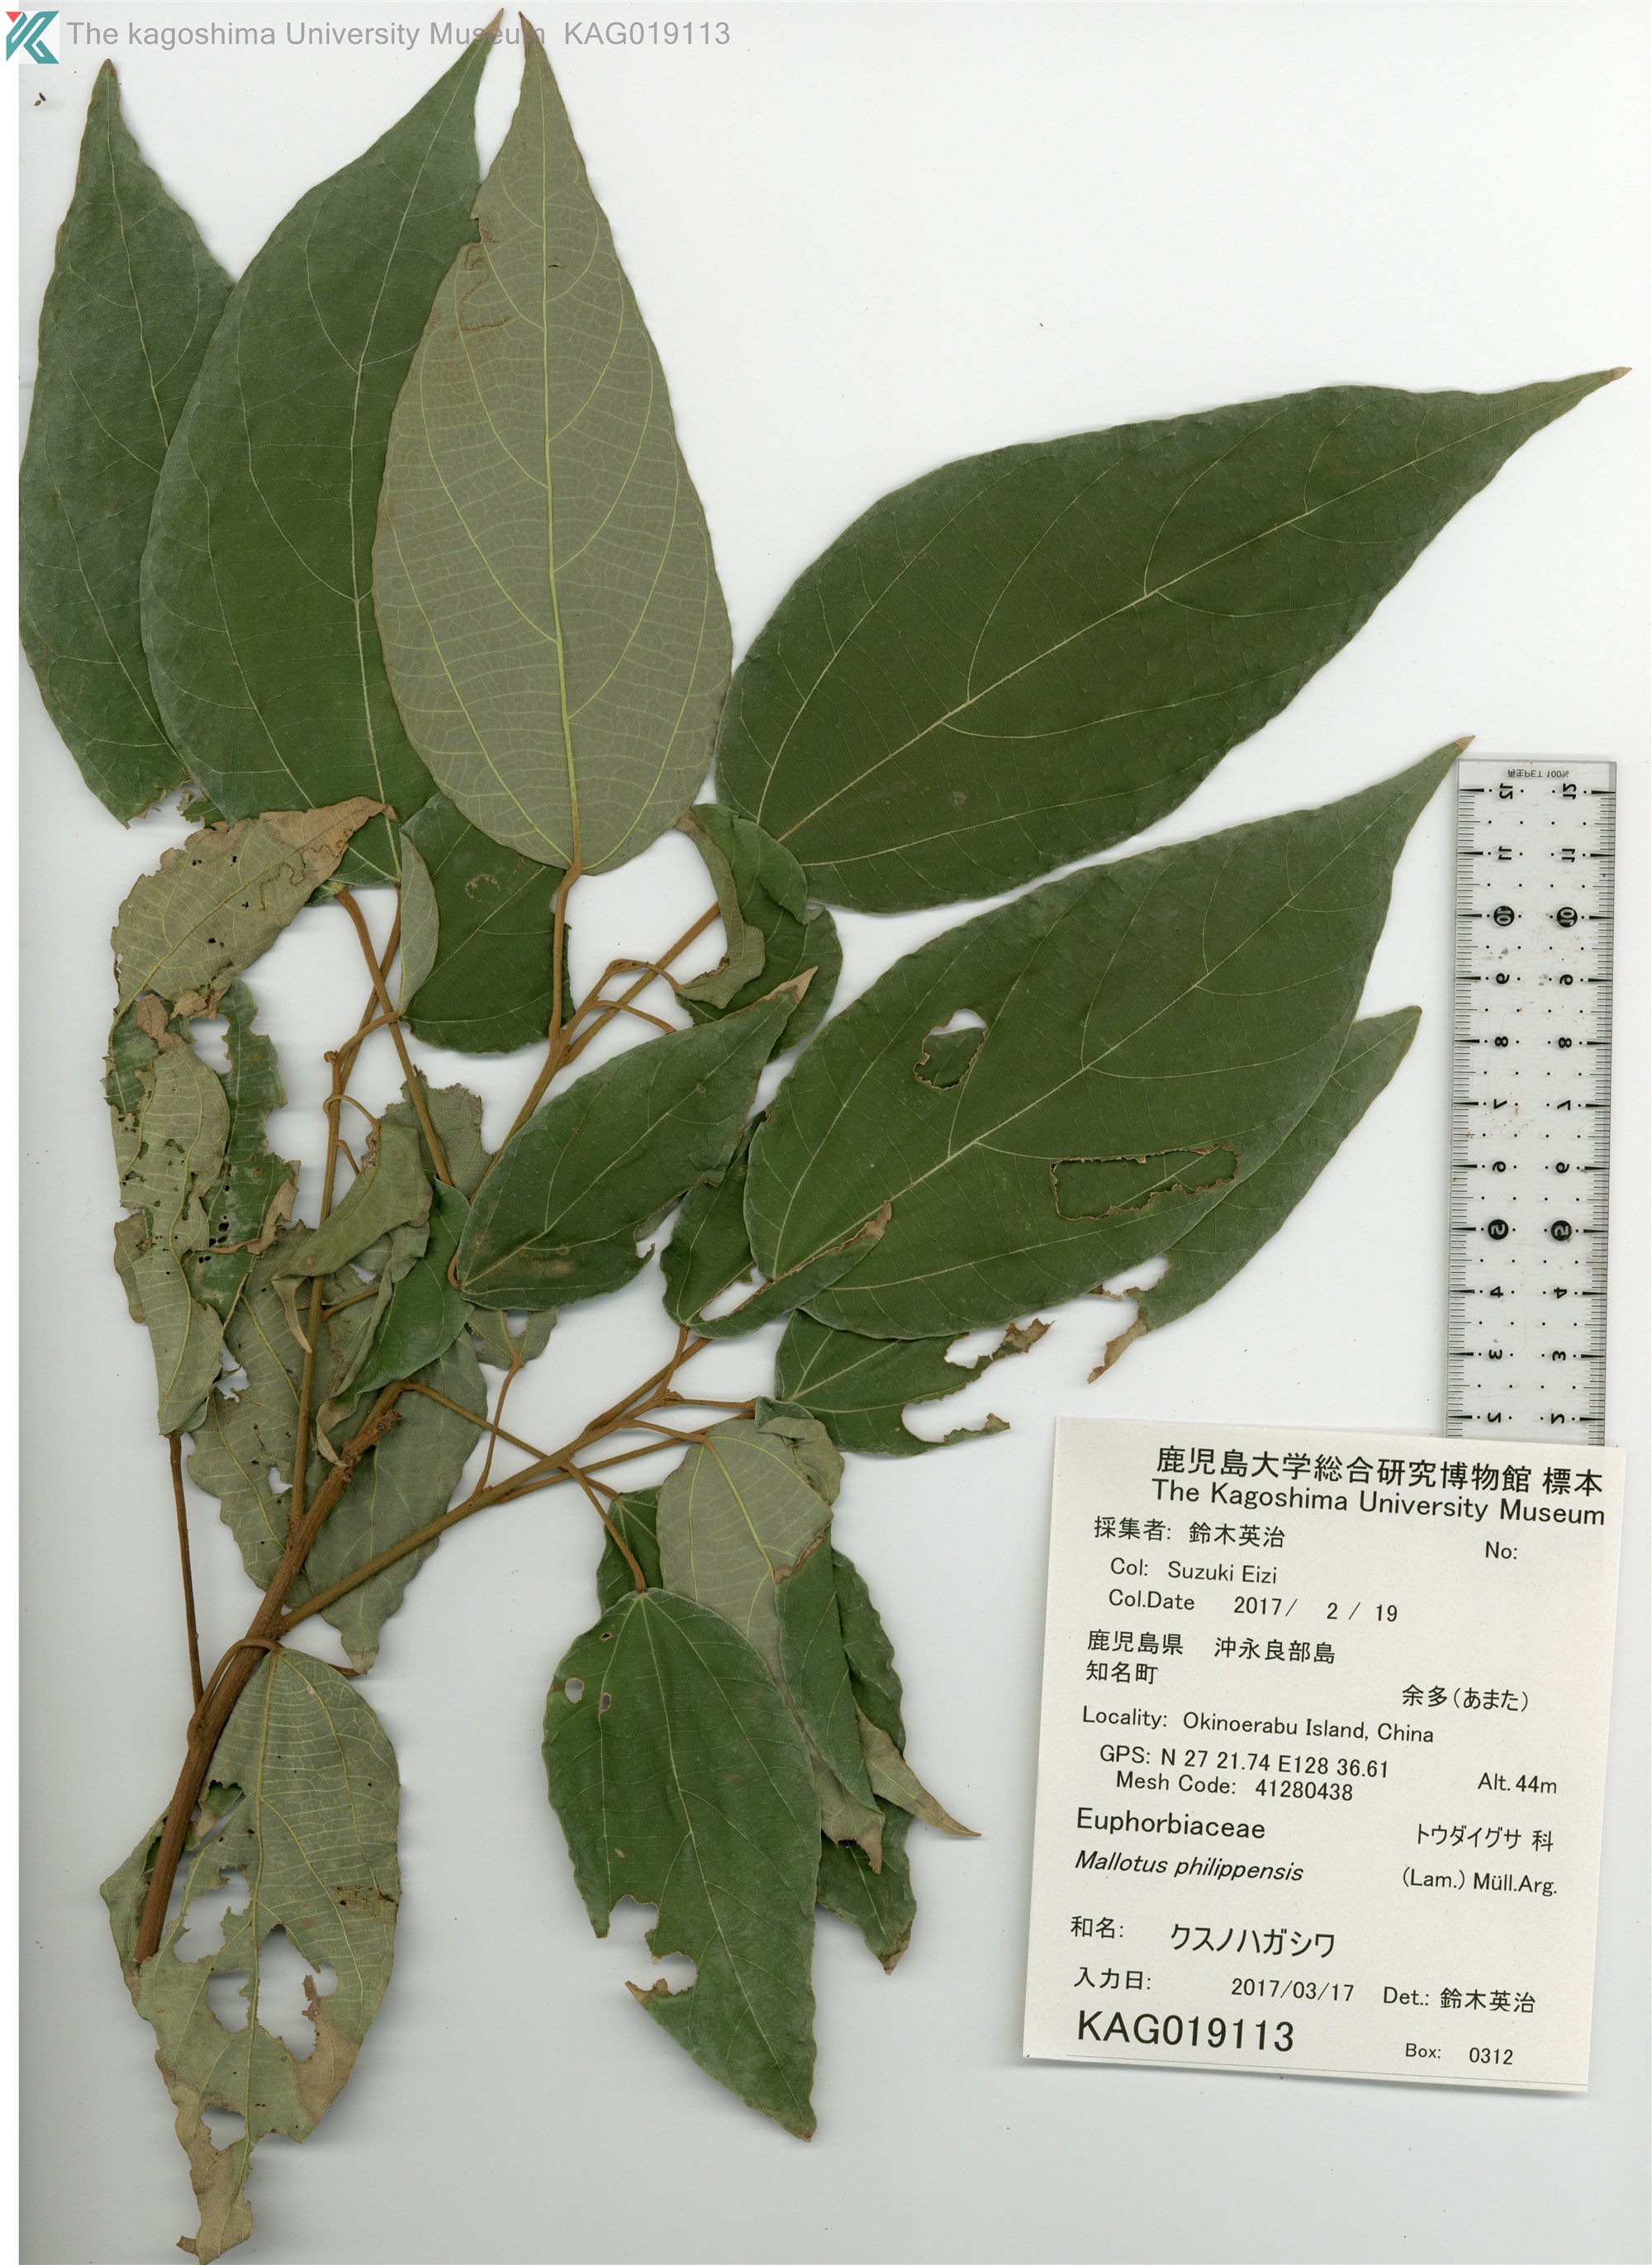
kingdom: Plantae
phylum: Tracheophyta
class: Magnoliopsida
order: Malpighiales
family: Euphorbiaceae
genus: Mallotus
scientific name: Mallotus philippensis
